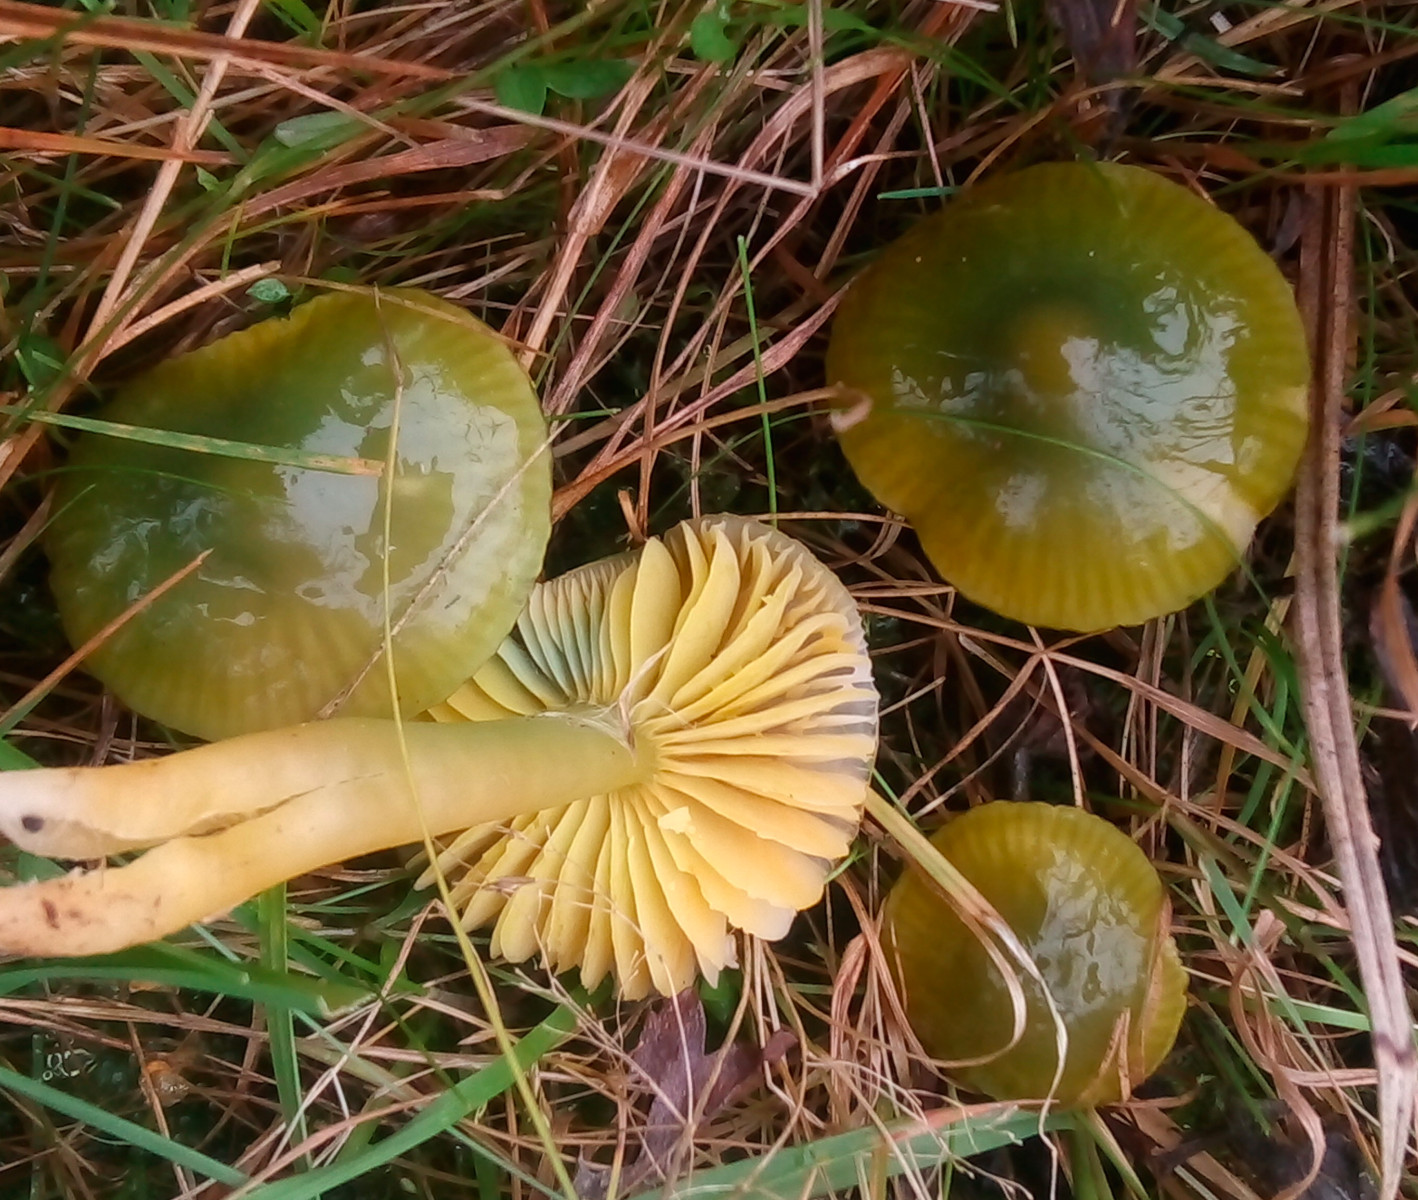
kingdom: Fungi
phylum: Basidiomycota
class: Agaricomycetes
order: Agaricales
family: Hygrophoraceae
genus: Gliophorus
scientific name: Gliophorus psittacinus
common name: papegøje-vokshat
